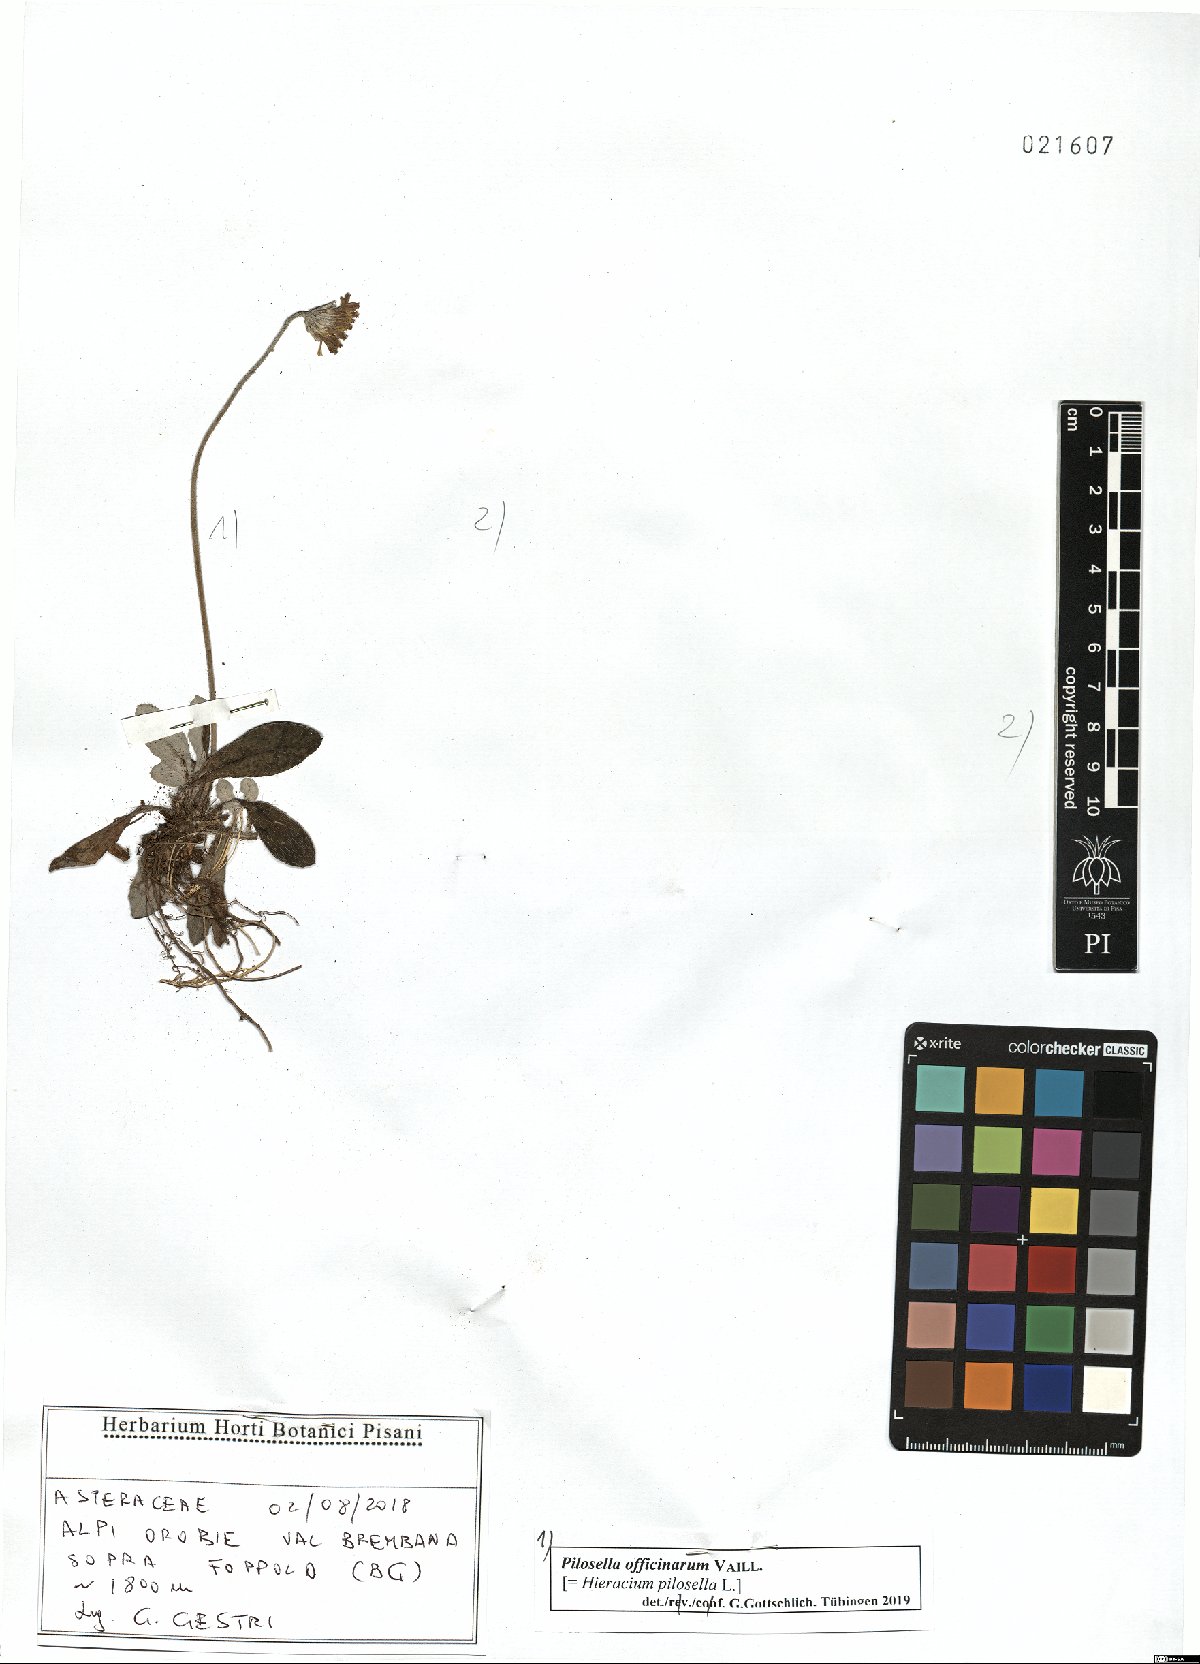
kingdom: Plantae
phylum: Tracheophyta
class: Magnoliopsida
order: Asterales
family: Asteraceae
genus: Pilosella
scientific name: Pilosella officinarum
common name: Mouse-ear hawkweed
